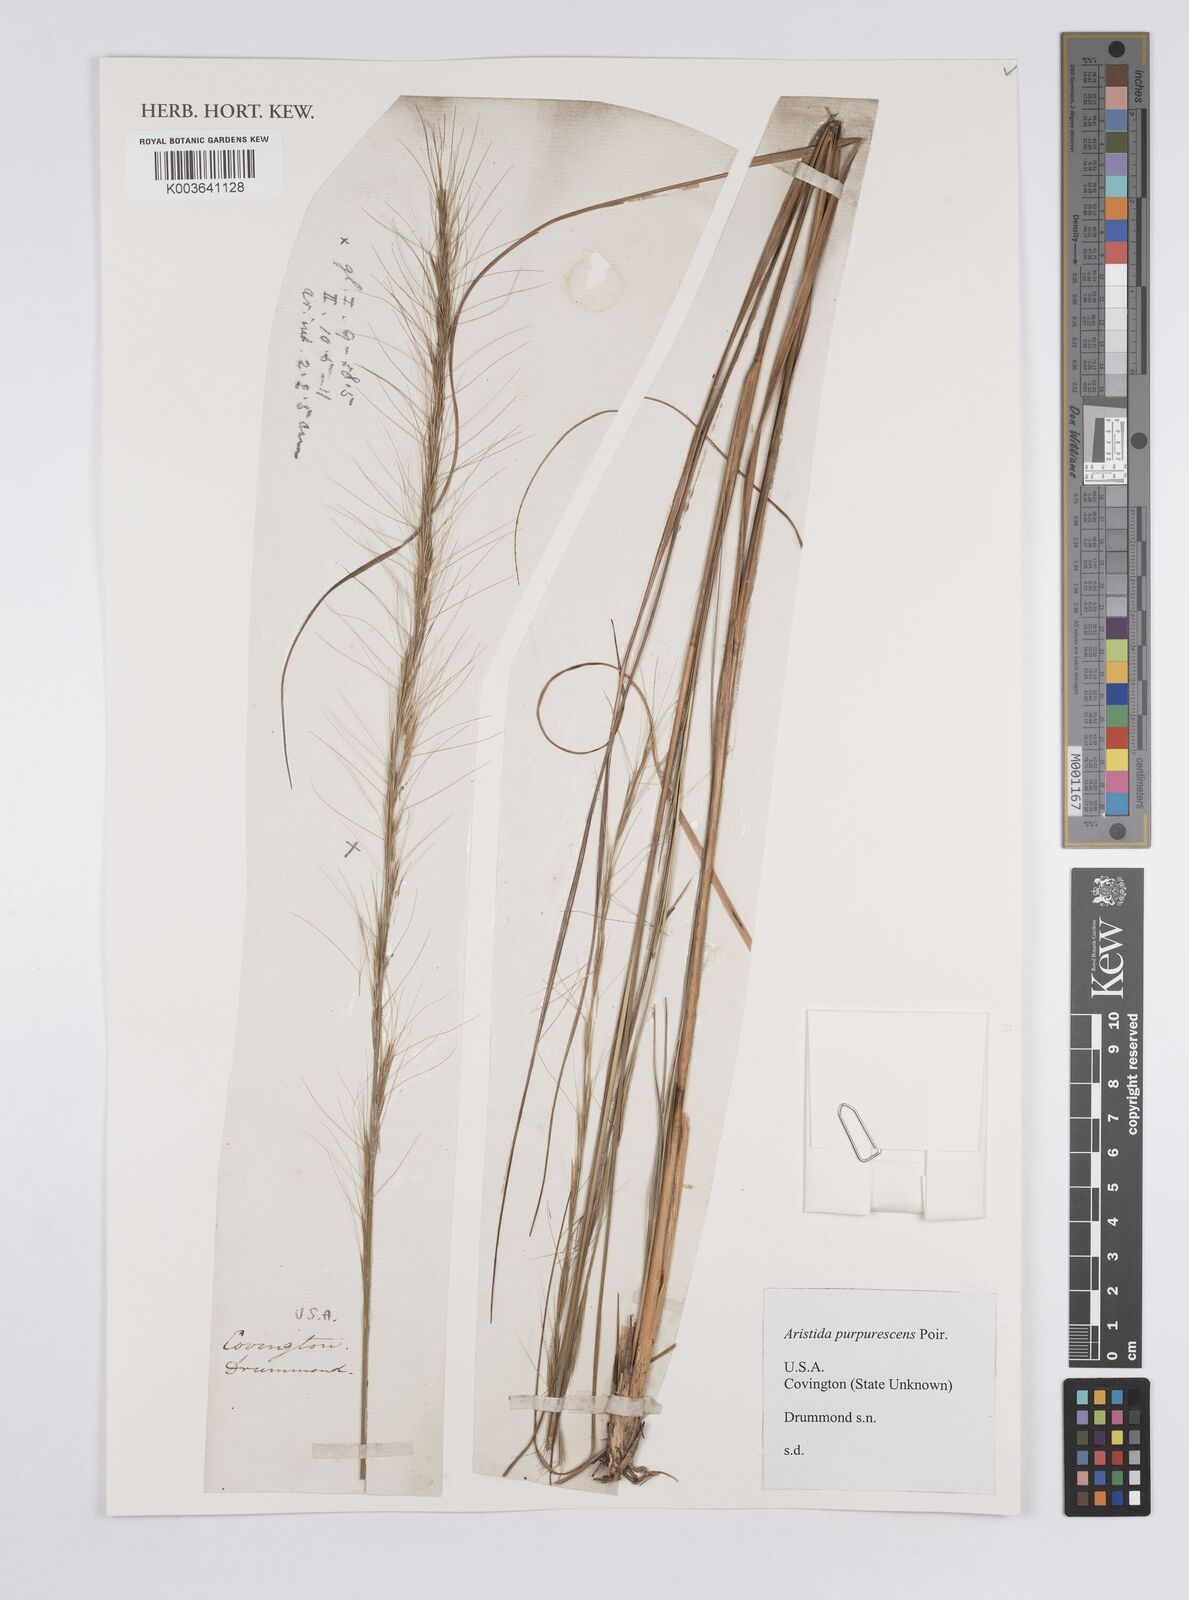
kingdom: Plantae
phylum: Tracheophyta
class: Liliopsida
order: Poales
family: Poaceae
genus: Aristida
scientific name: Aristida purpurascens
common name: Arrow-feather
